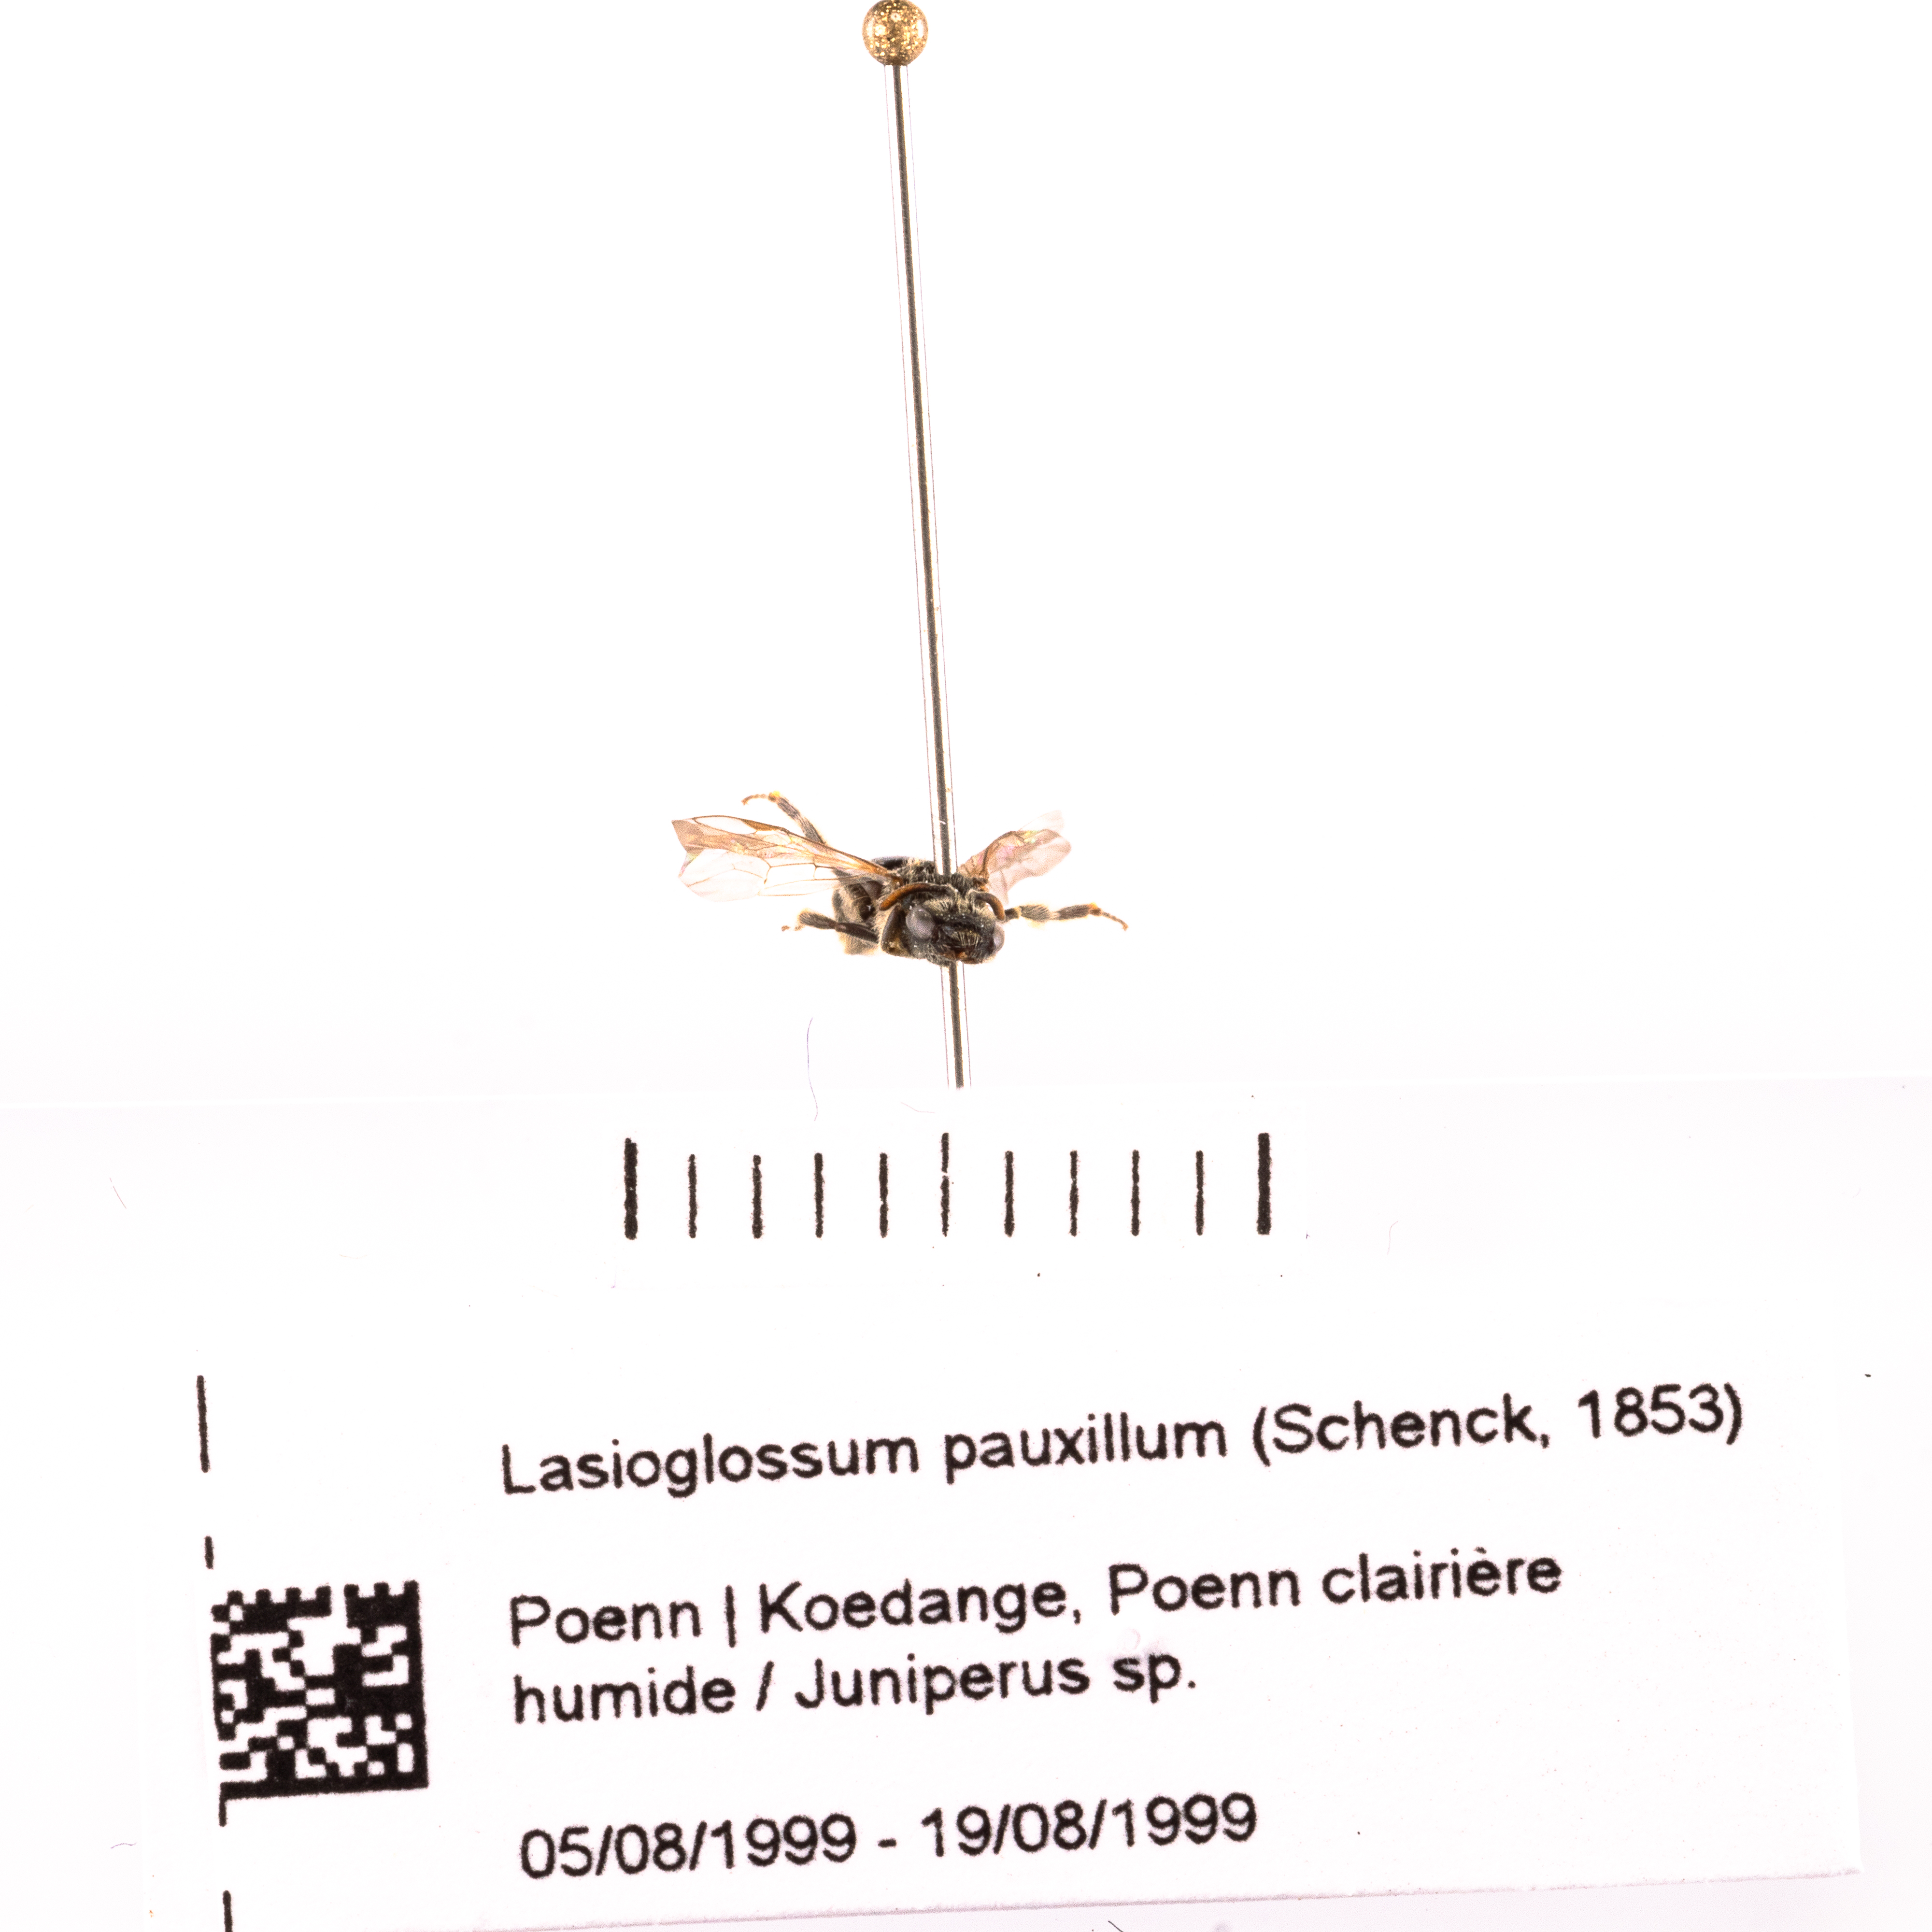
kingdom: Animalia
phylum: Arthropoda
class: Insecta
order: Hymenoptera
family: Halictidae
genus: Lasioglossum
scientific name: Lasioglossum pauxillum
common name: Lobe-spurred furrow bee
